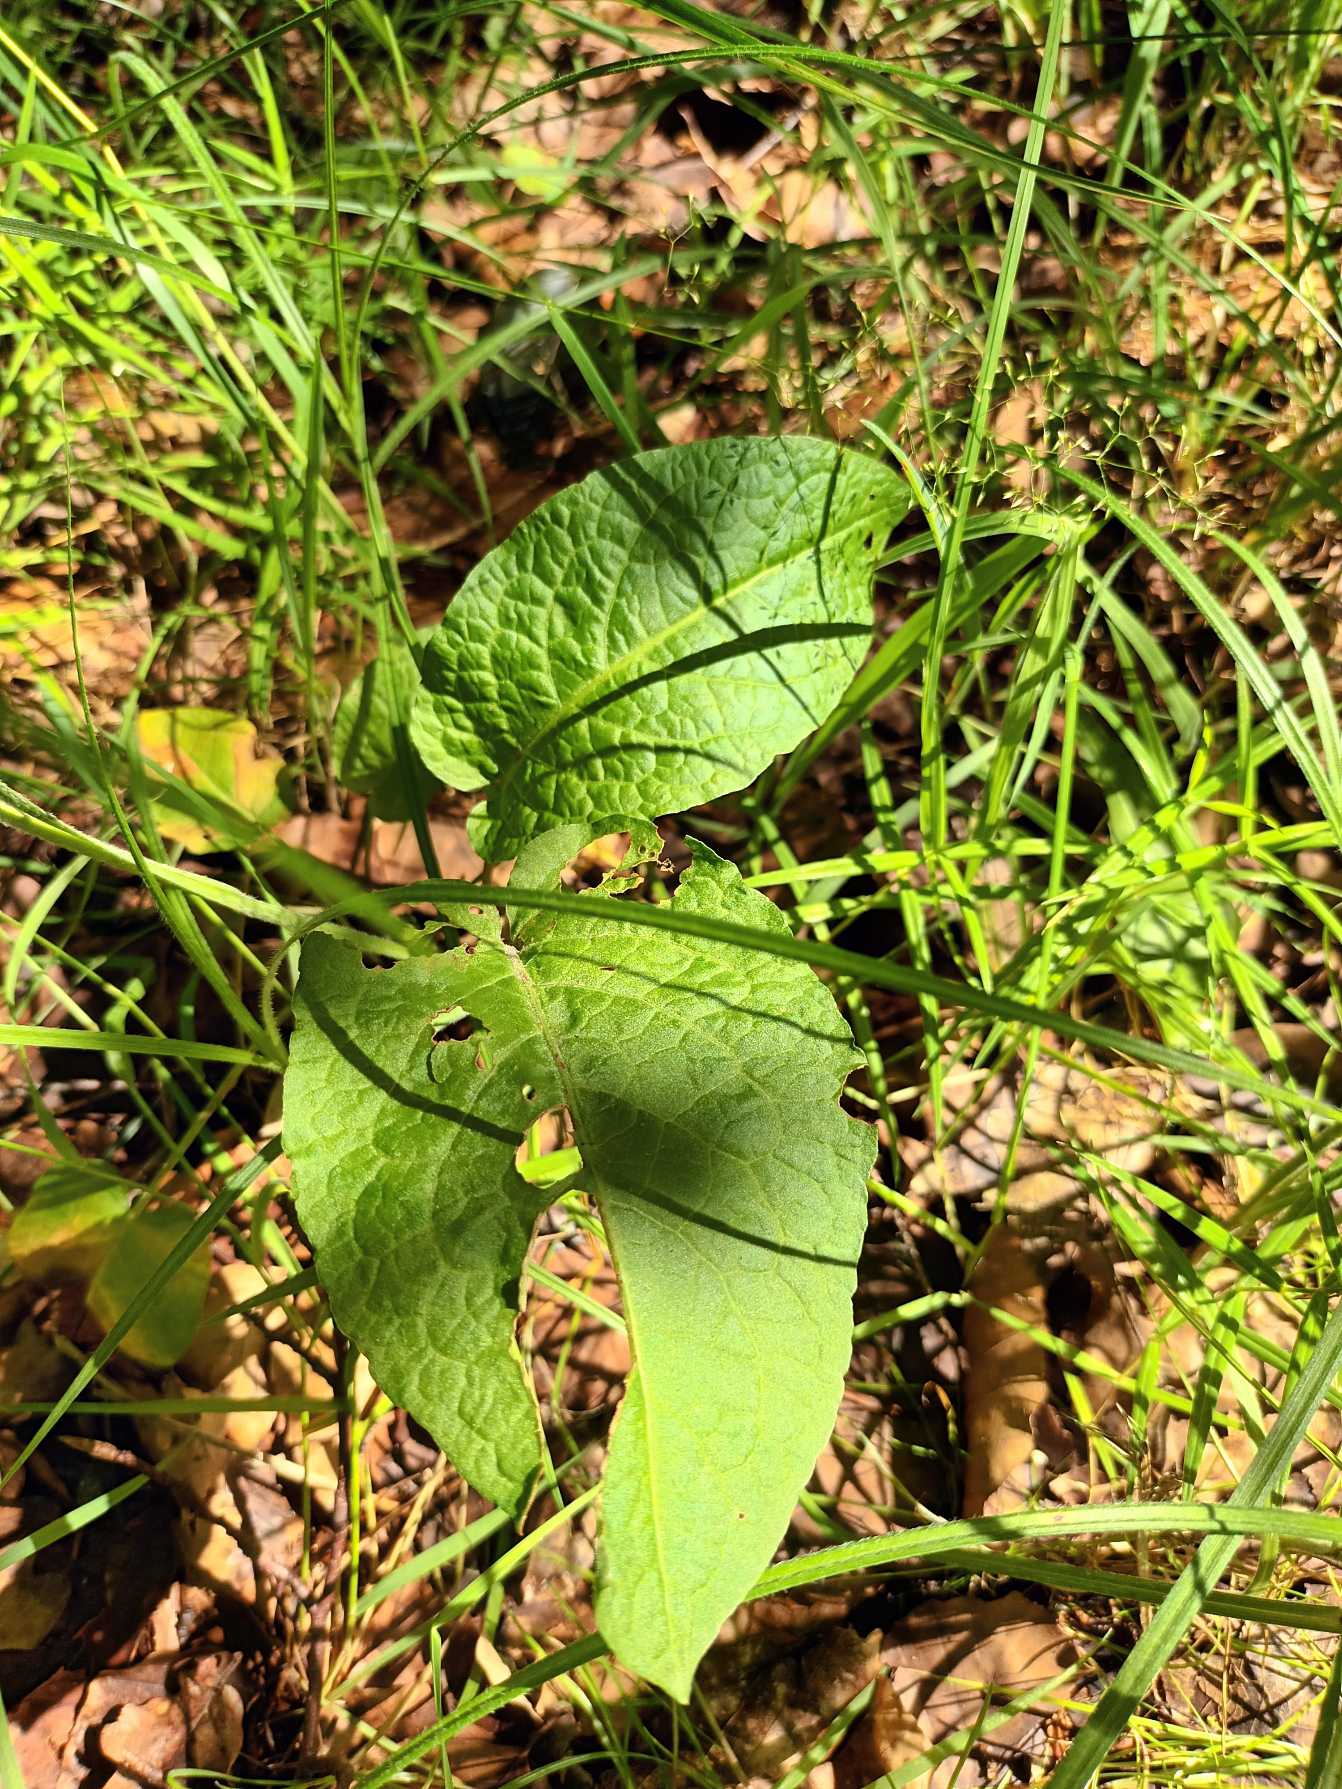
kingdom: Plantae
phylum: Tracheophyta
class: Magnoliopsida
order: Caryophyllales
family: Polygonaceae
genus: Rumex
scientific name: Rumex obtusifolius
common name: Butbladet skræppe
